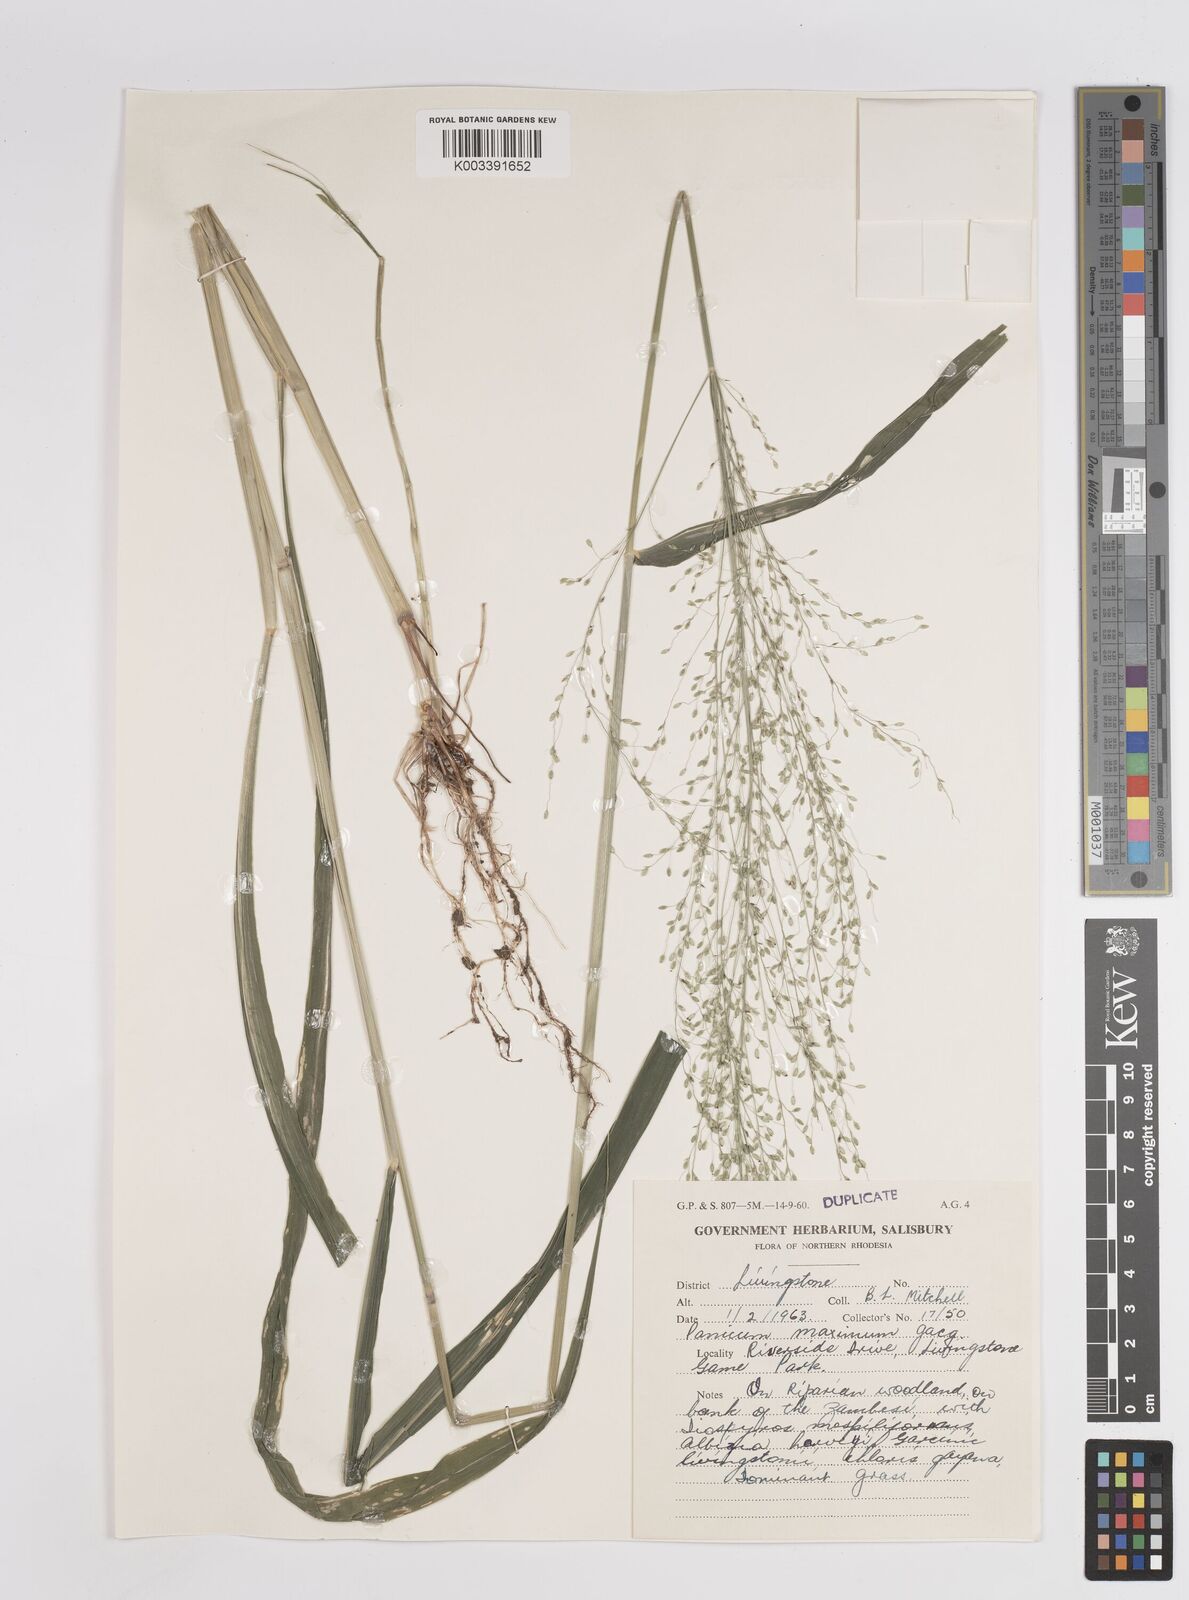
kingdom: Plantae
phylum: Tracheophyta
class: Liliopsida
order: Poales
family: Poaceae
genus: Megathyrsus
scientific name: Megathyrsus maximus
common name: Guineagrass
